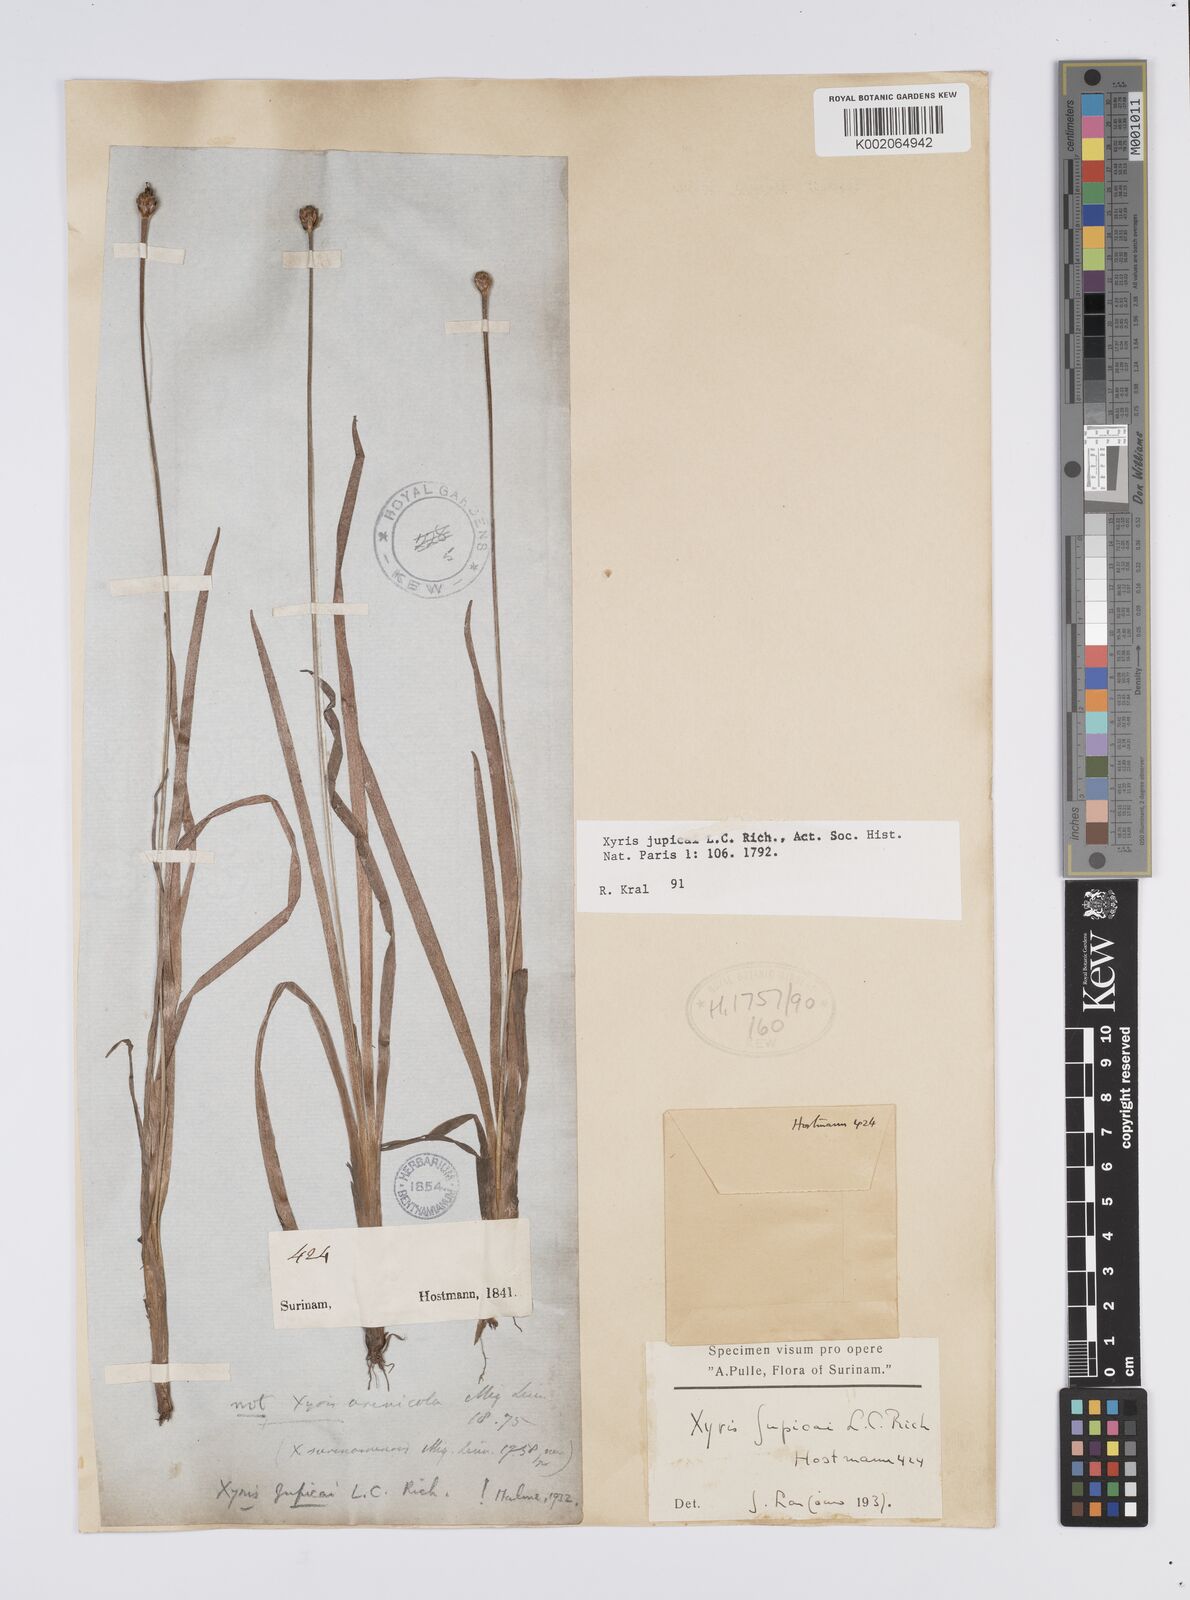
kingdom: Plantae
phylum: Tracheophyta
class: Liliopsida
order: Poales
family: Xyridaceae
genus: Xyris
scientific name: Xyris jupicai
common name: Richard's yelloweyed grass
